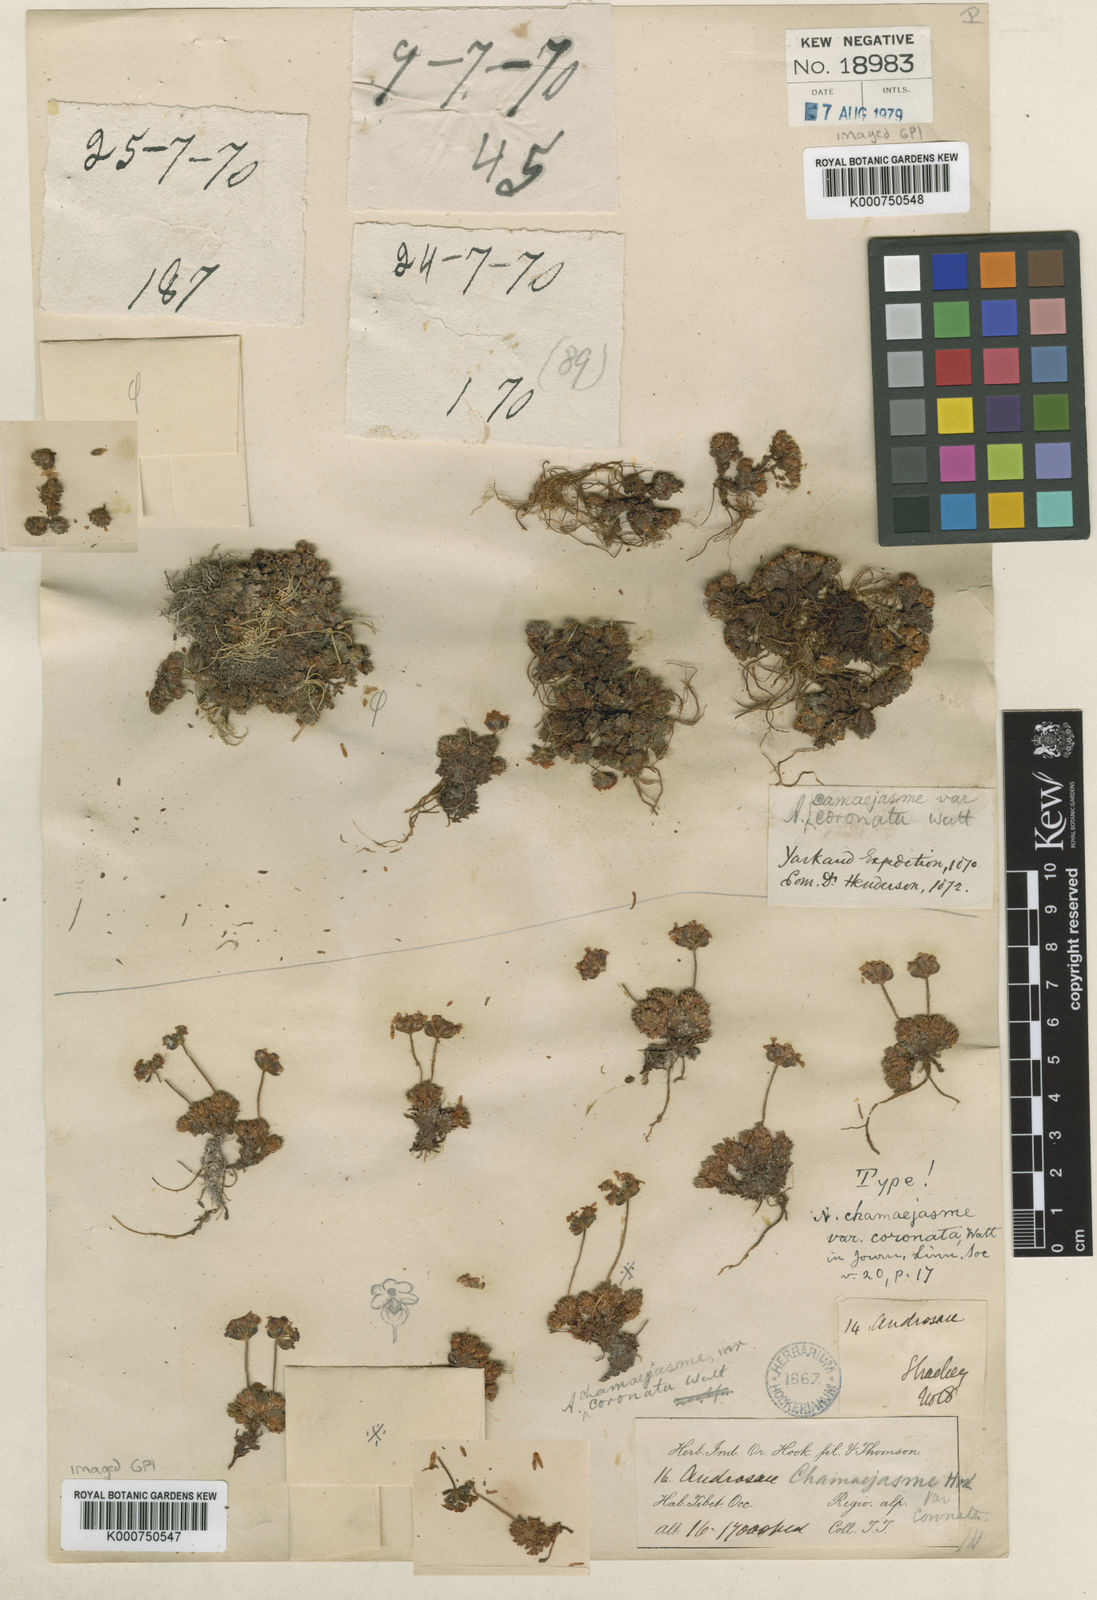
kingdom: Plantae
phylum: Tracheophyta
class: Magnoliopsida
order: Ericales
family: Primulaceae
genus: Androsace
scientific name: Androsace coronata
